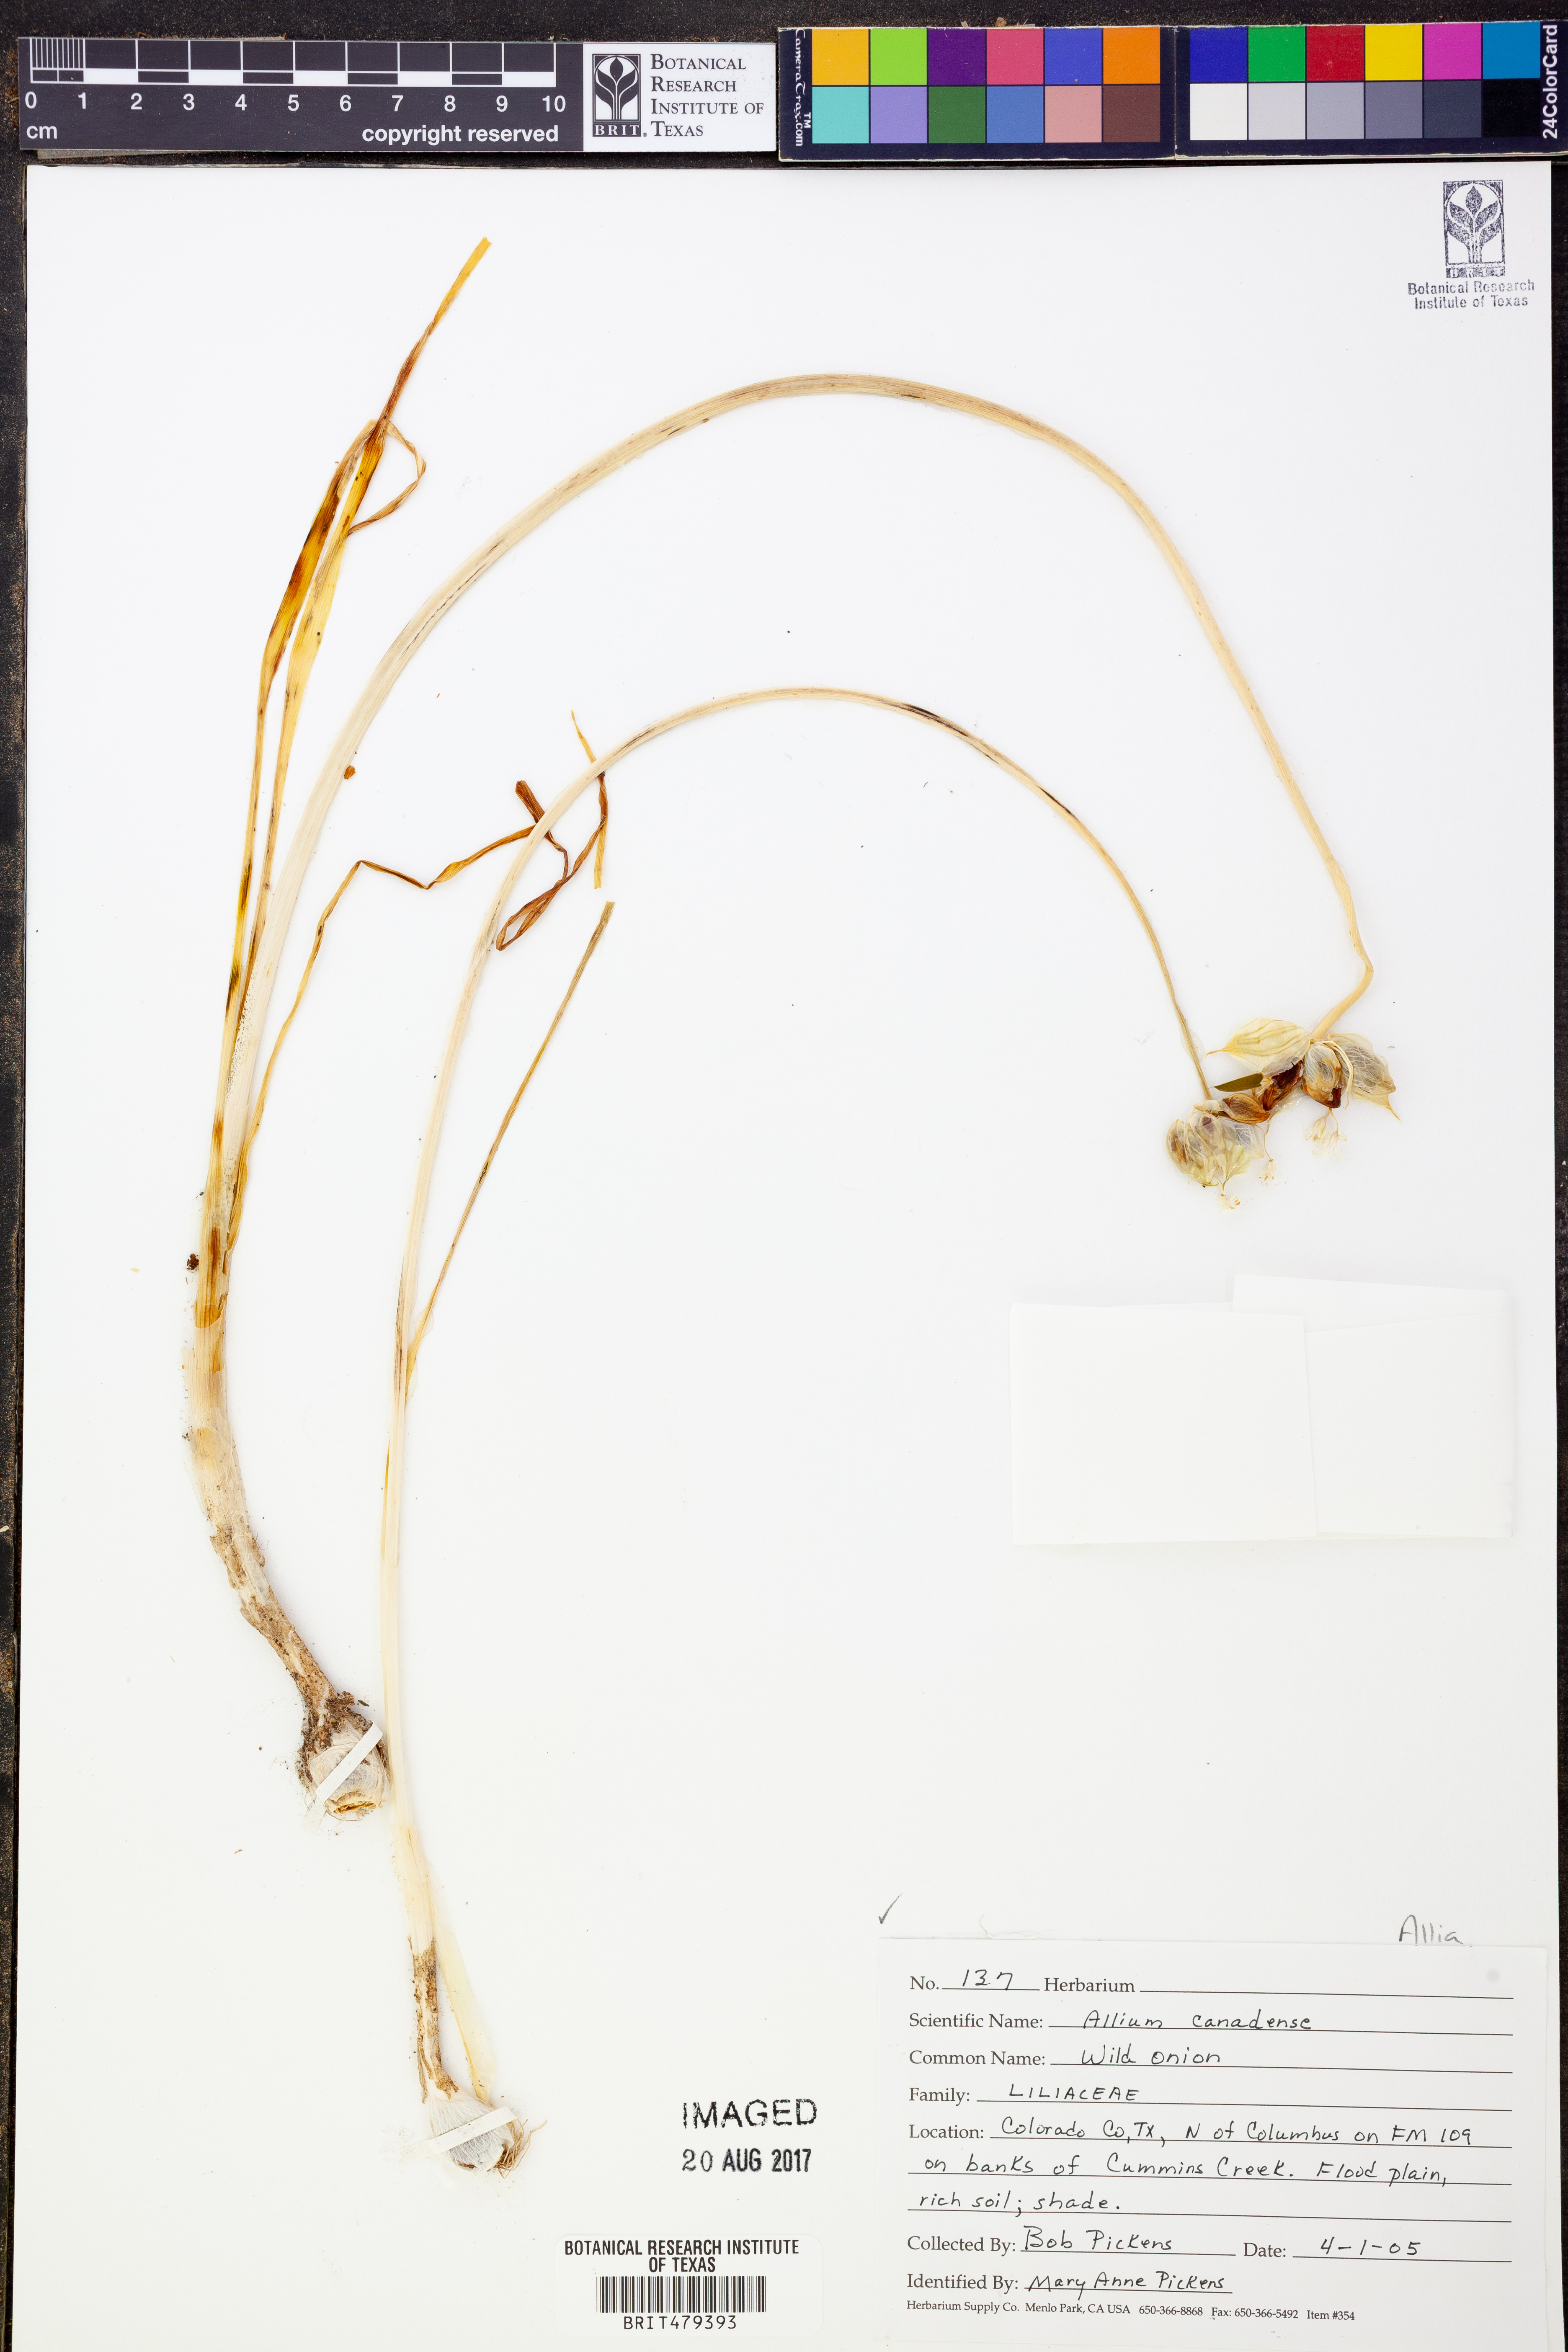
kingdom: Plantae
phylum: Tracheophyta
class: Liliopsida
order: Asparagales
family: Amaryllidaceae
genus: Allium
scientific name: Allium canadense
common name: Meadow garlic
